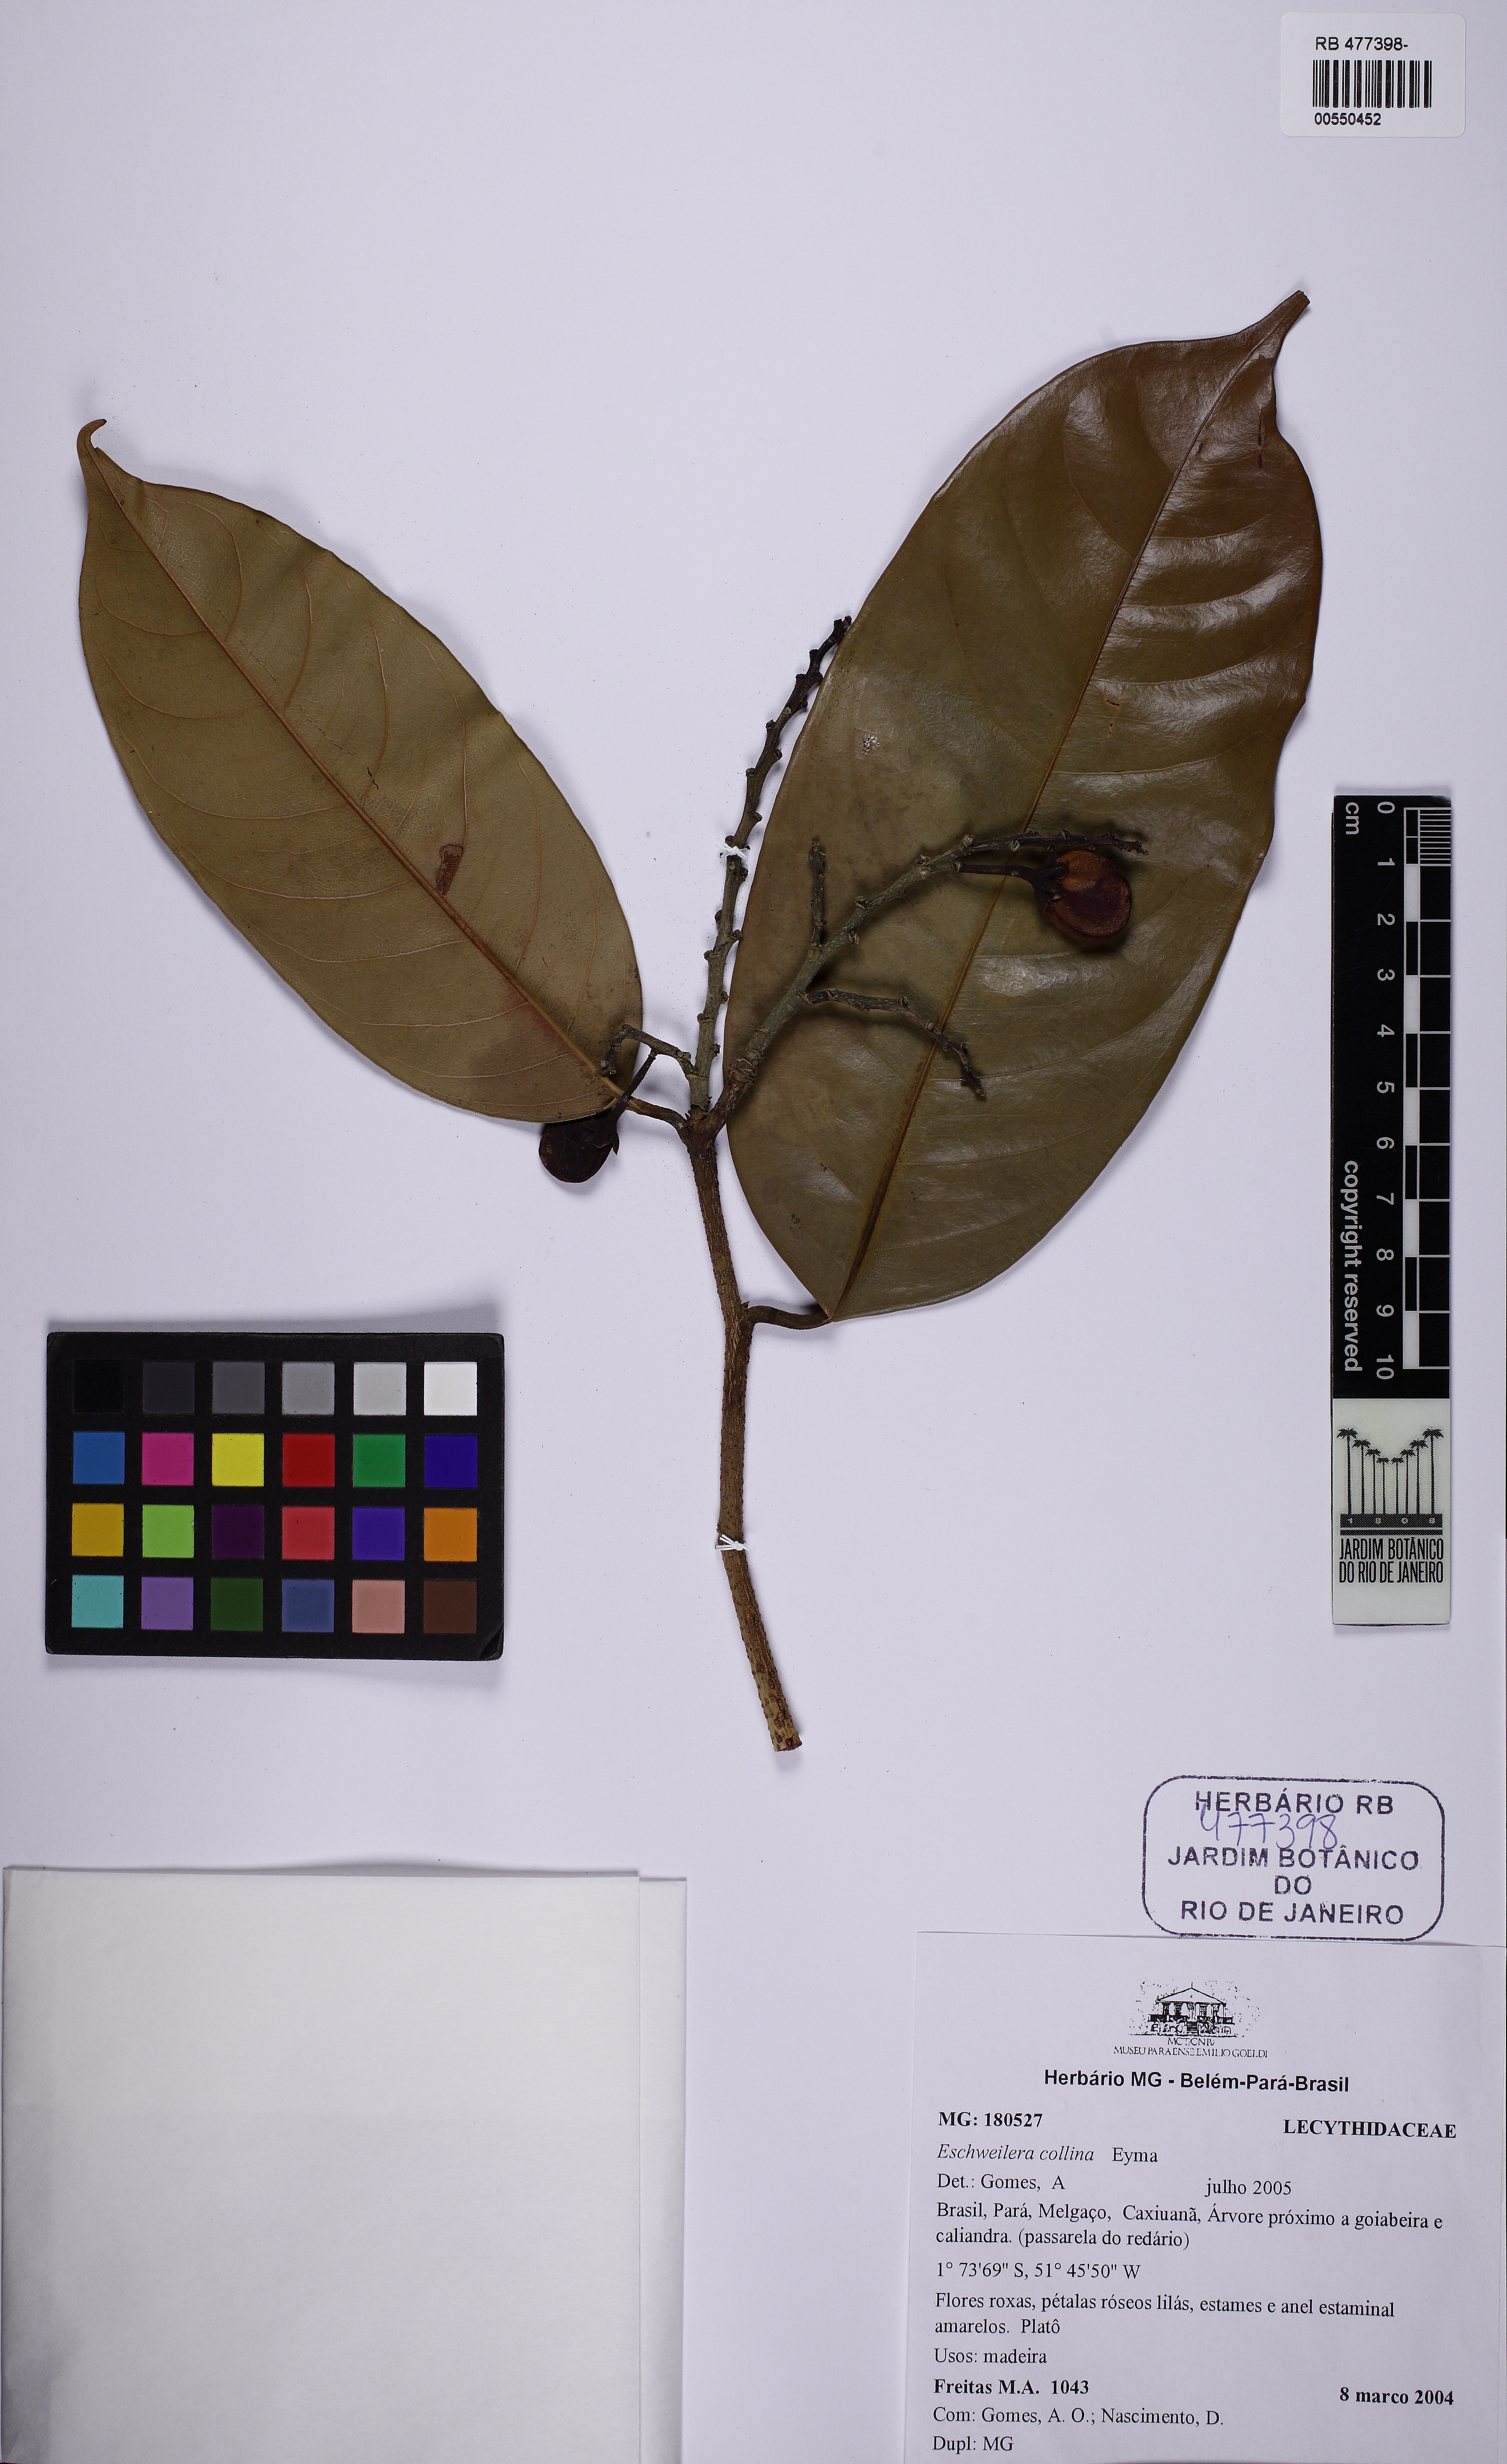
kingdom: Plantae
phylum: Tracheophyta
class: Magnoliopsida
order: Ericales
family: Lecythidaceae
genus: Eschweilera
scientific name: Eschweilera collina
